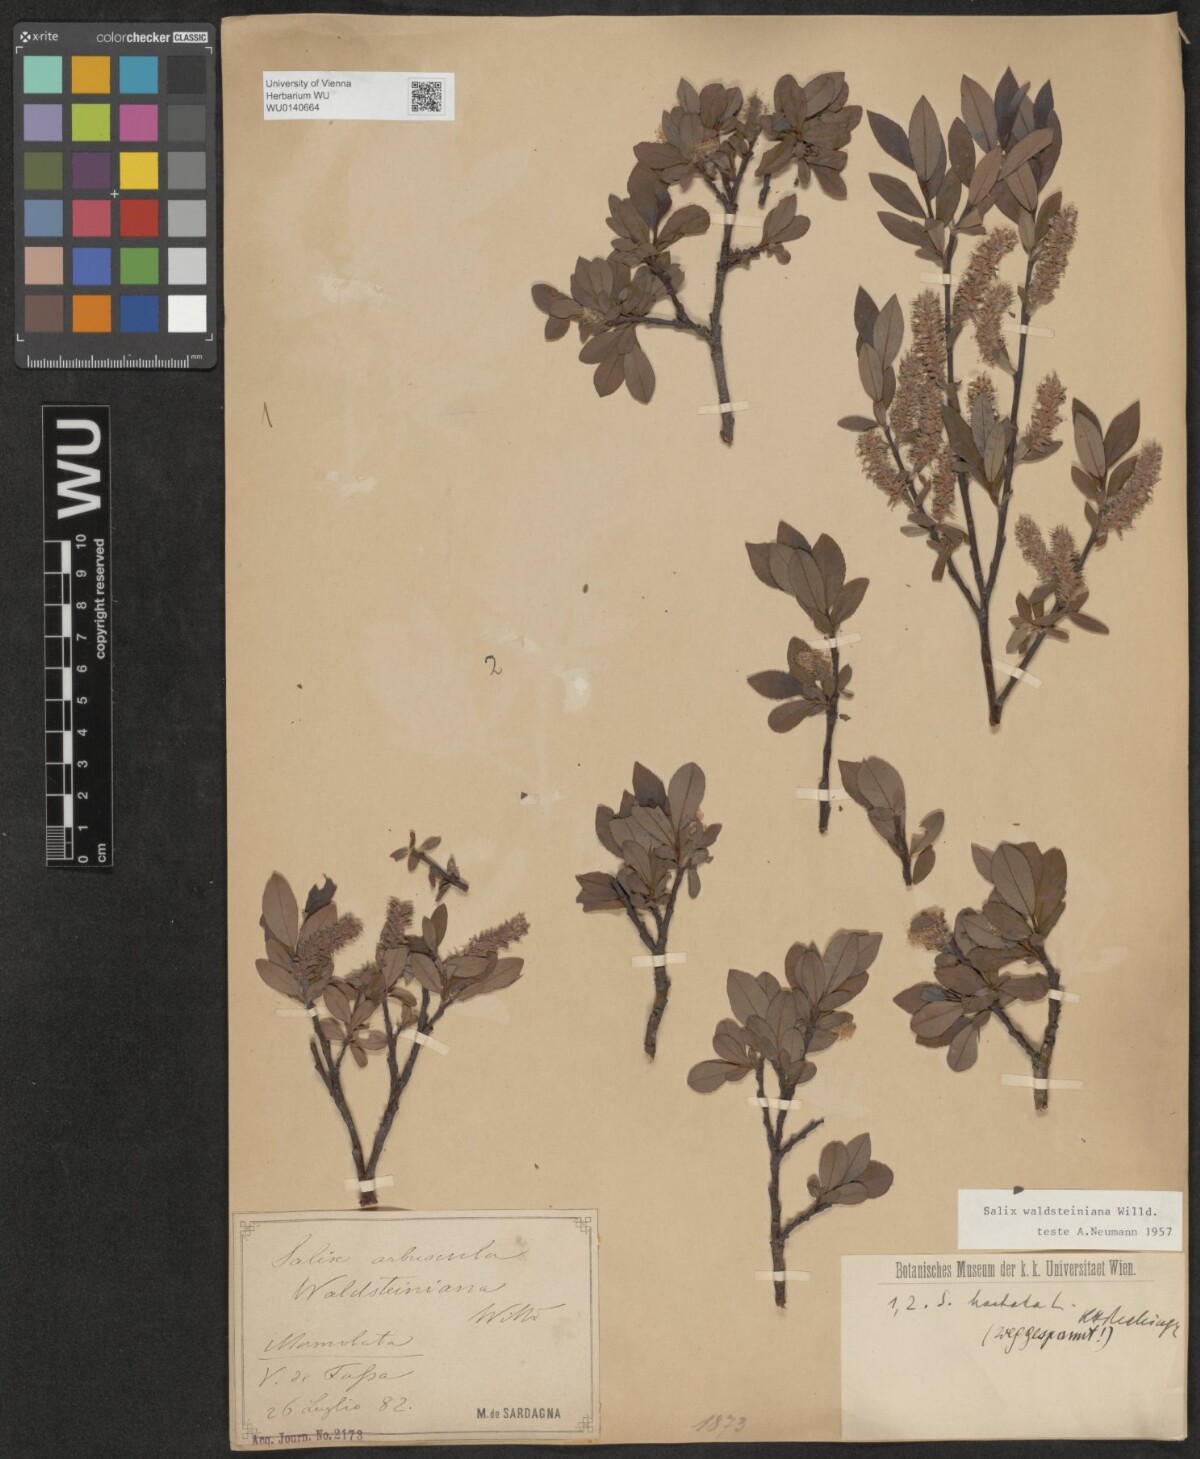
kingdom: Plantae
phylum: Tracheophyta
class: Magnoliopsida
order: Malpighiales
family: Salicaceae
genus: Salix
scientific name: Salix waldsteiniana
